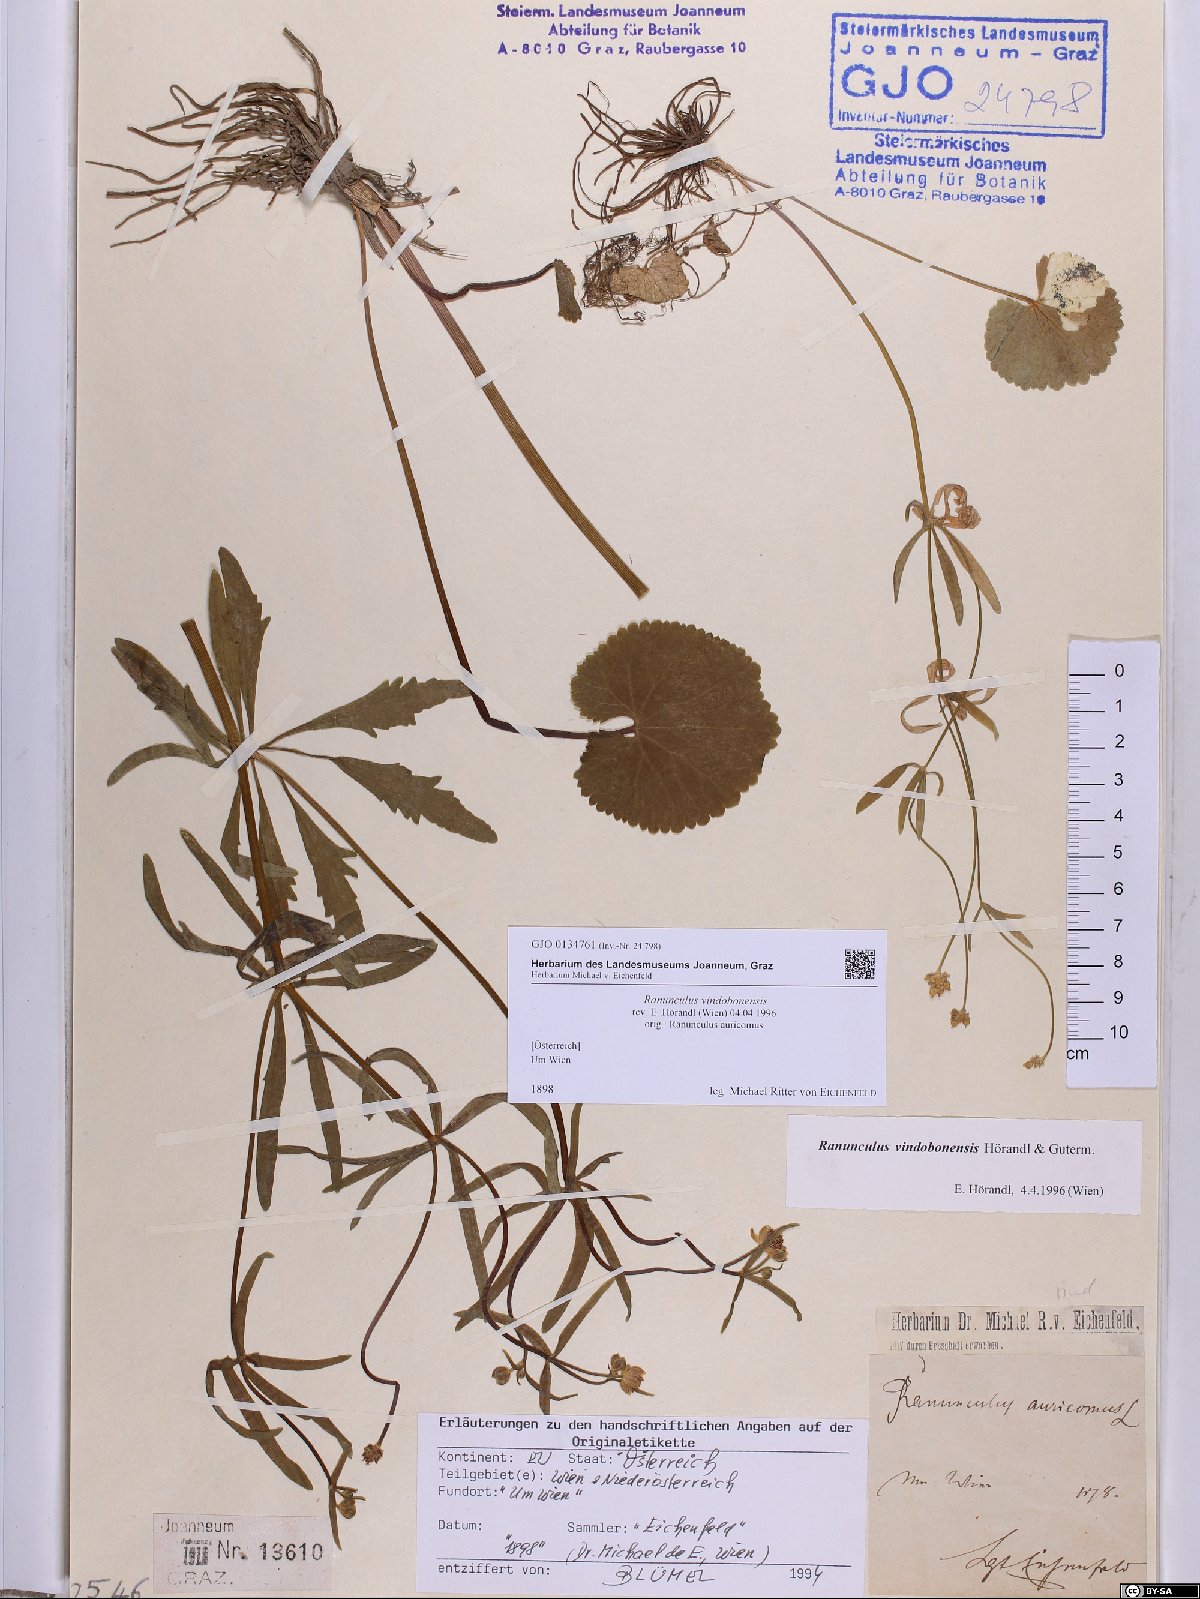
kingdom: Plantae
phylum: Tracheophyta
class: Magnoliopsida
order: Ranunculales
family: Ranunculaceae
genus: Ranunculus
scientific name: Ranunculus vindobonensis
